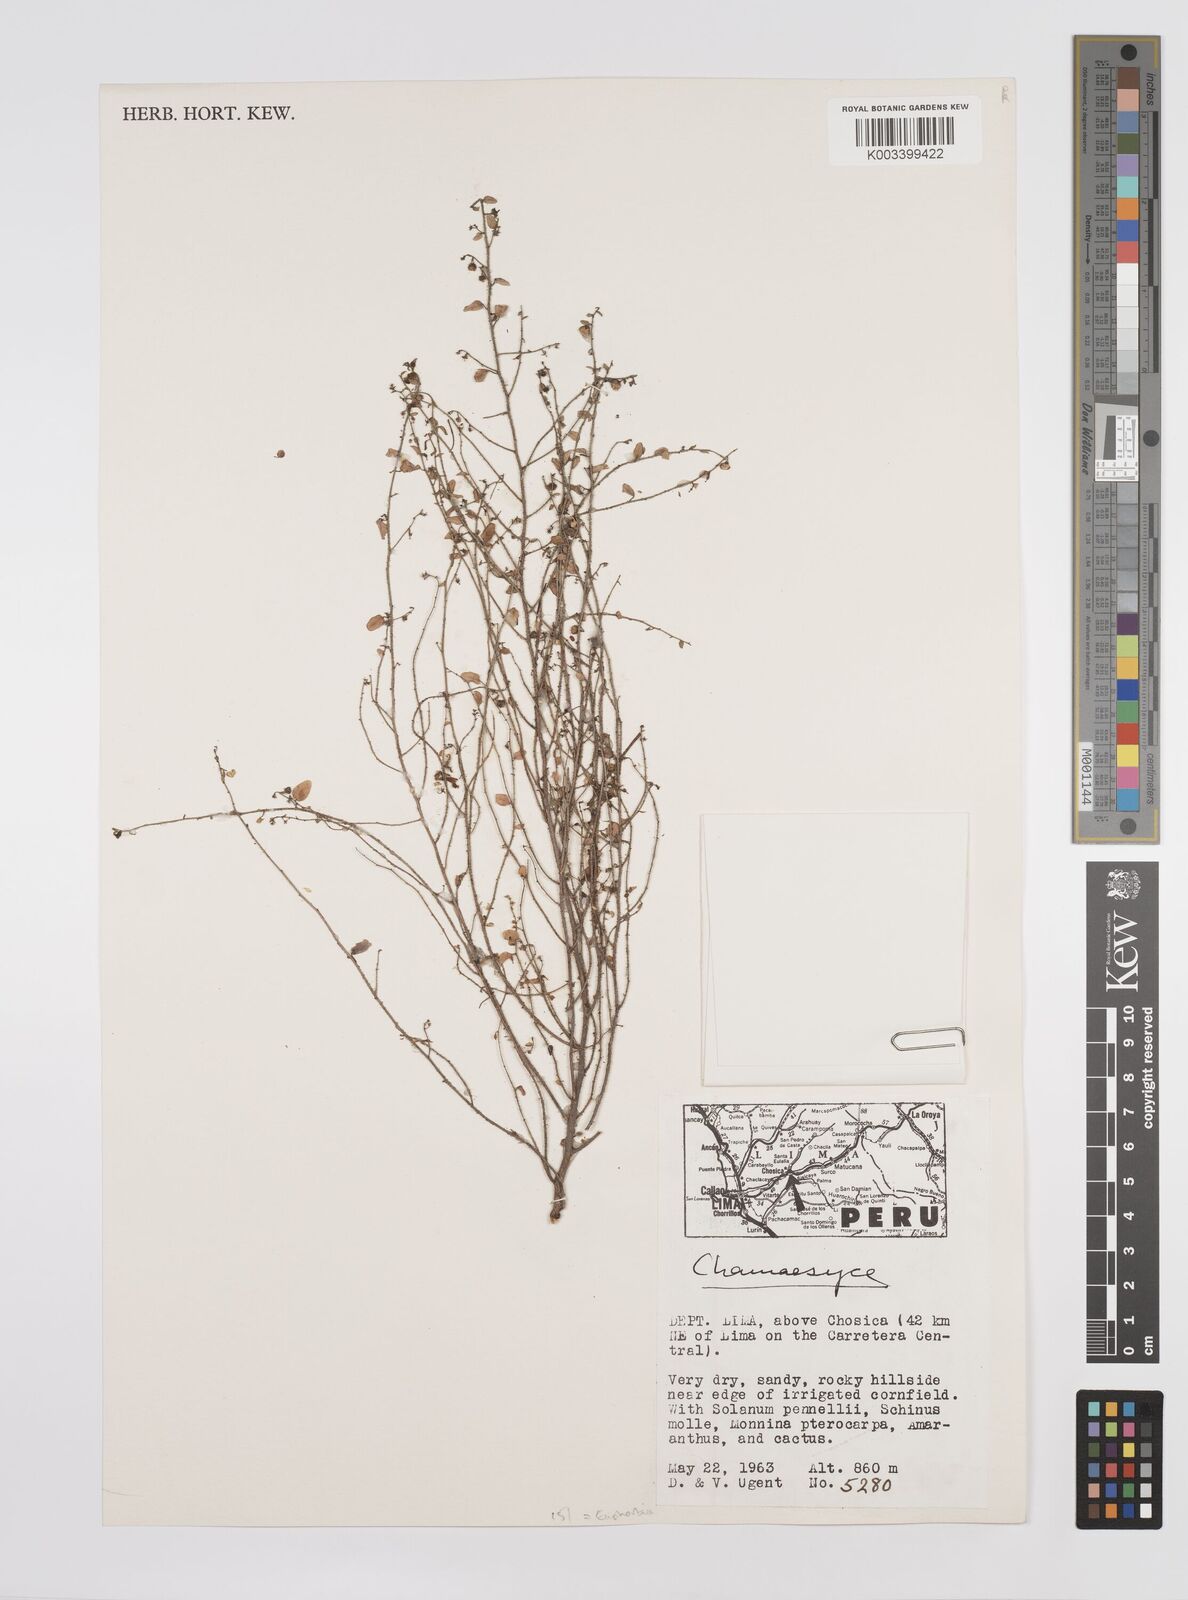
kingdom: Plantae
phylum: Tracheophyta
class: Magnoliopsida
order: Malpighiales
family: Euphorbiaceae
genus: Euphorbia
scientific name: Euphorbia
